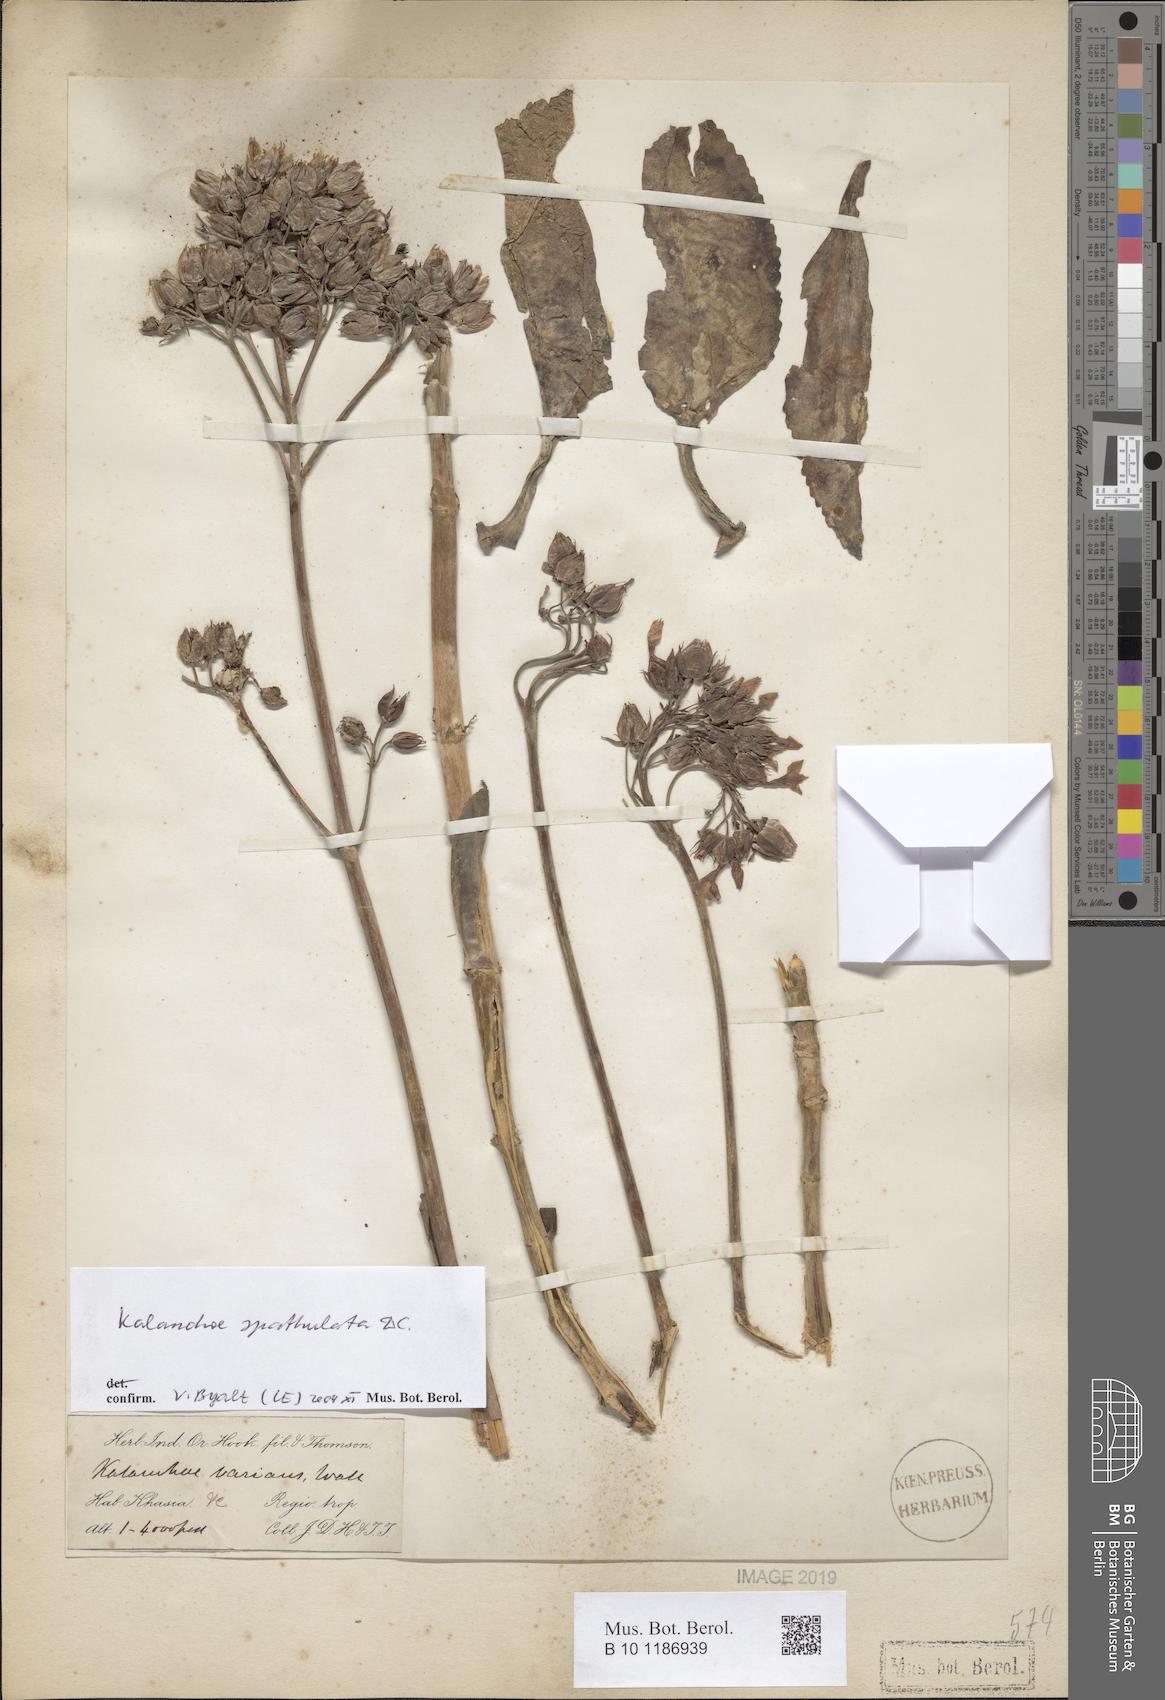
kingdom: Plantae
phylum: Tracheophyta
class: Magnoliopsida
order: Saxifragales
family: Crassulaceae
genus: Kalanchoe
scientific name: Kalanchoe integra
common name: Neverdie
